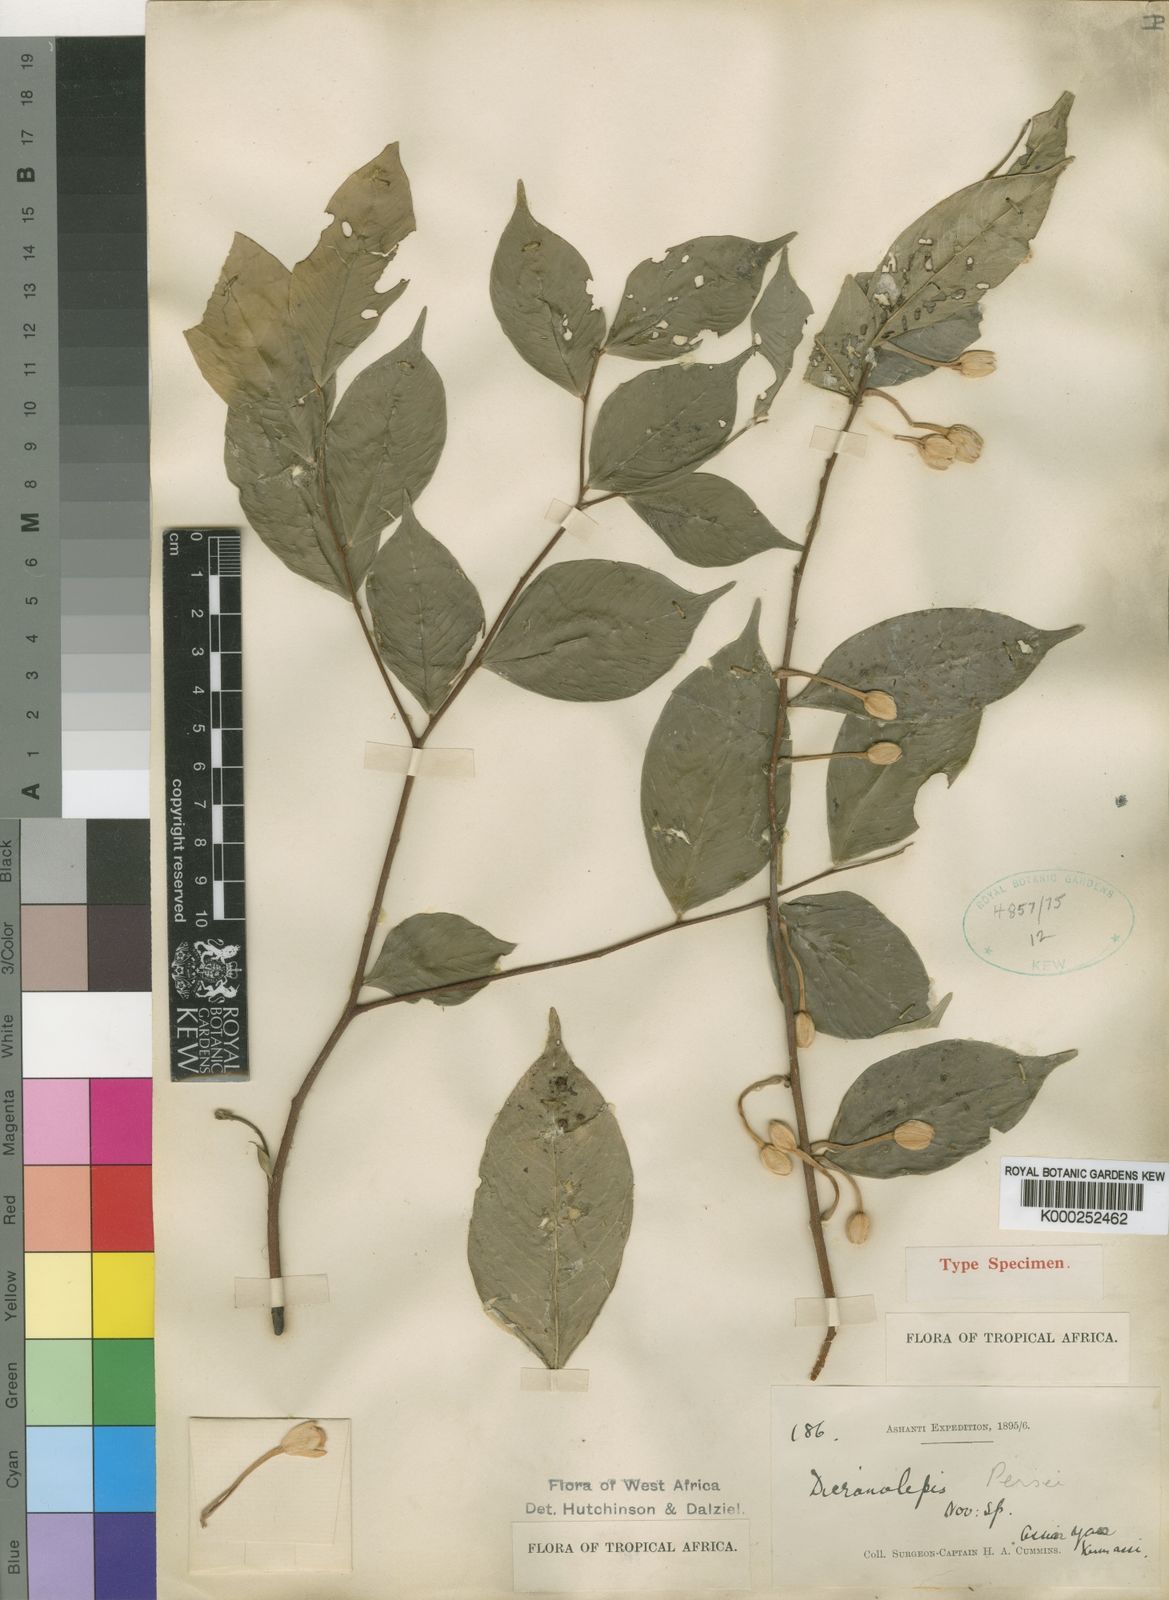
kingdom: Plantae
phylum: Tracheophyta
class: Magnoliopsida
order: Malvales
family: Thymelaeaceae
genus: Dicranolepis
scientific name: Dicranolepis persei
